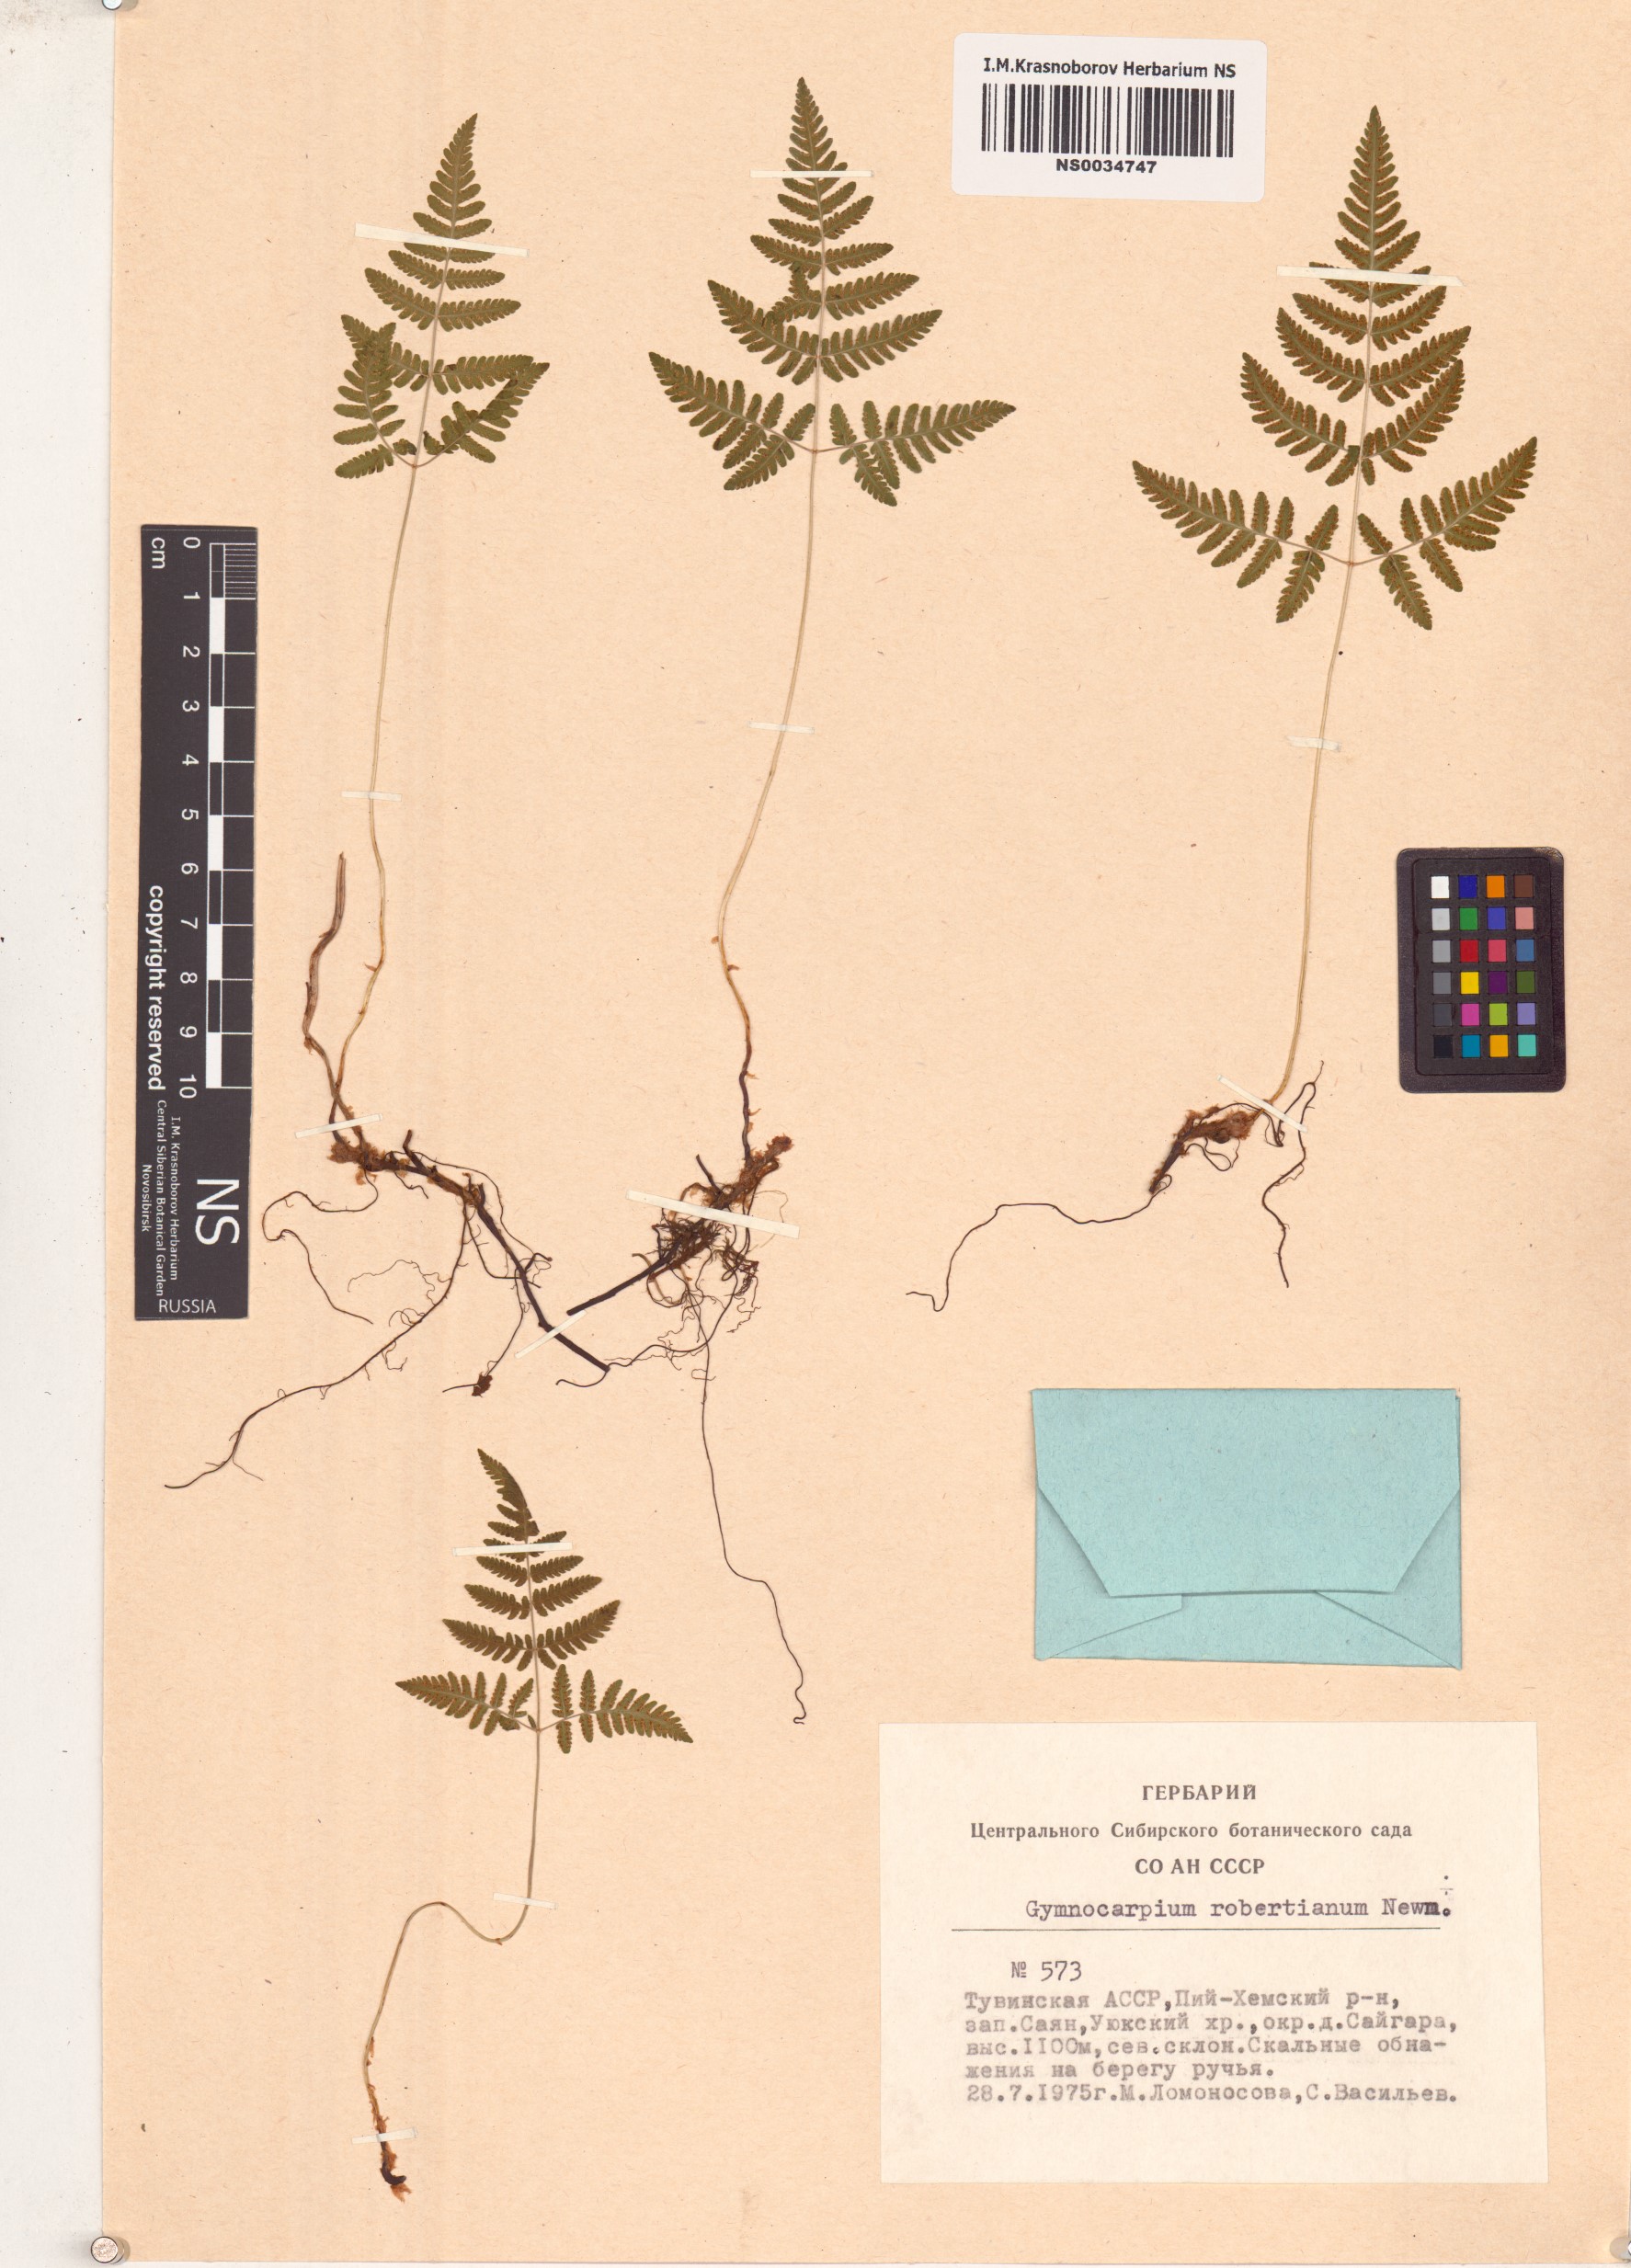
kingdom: Plantae
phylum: Tracheophyta
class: Polypodiopsida
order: Polypodiales
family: Cystopteridaceae
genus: Gymnocarpium
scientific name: Gymnocarpium robertianum
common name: Limestone fern
